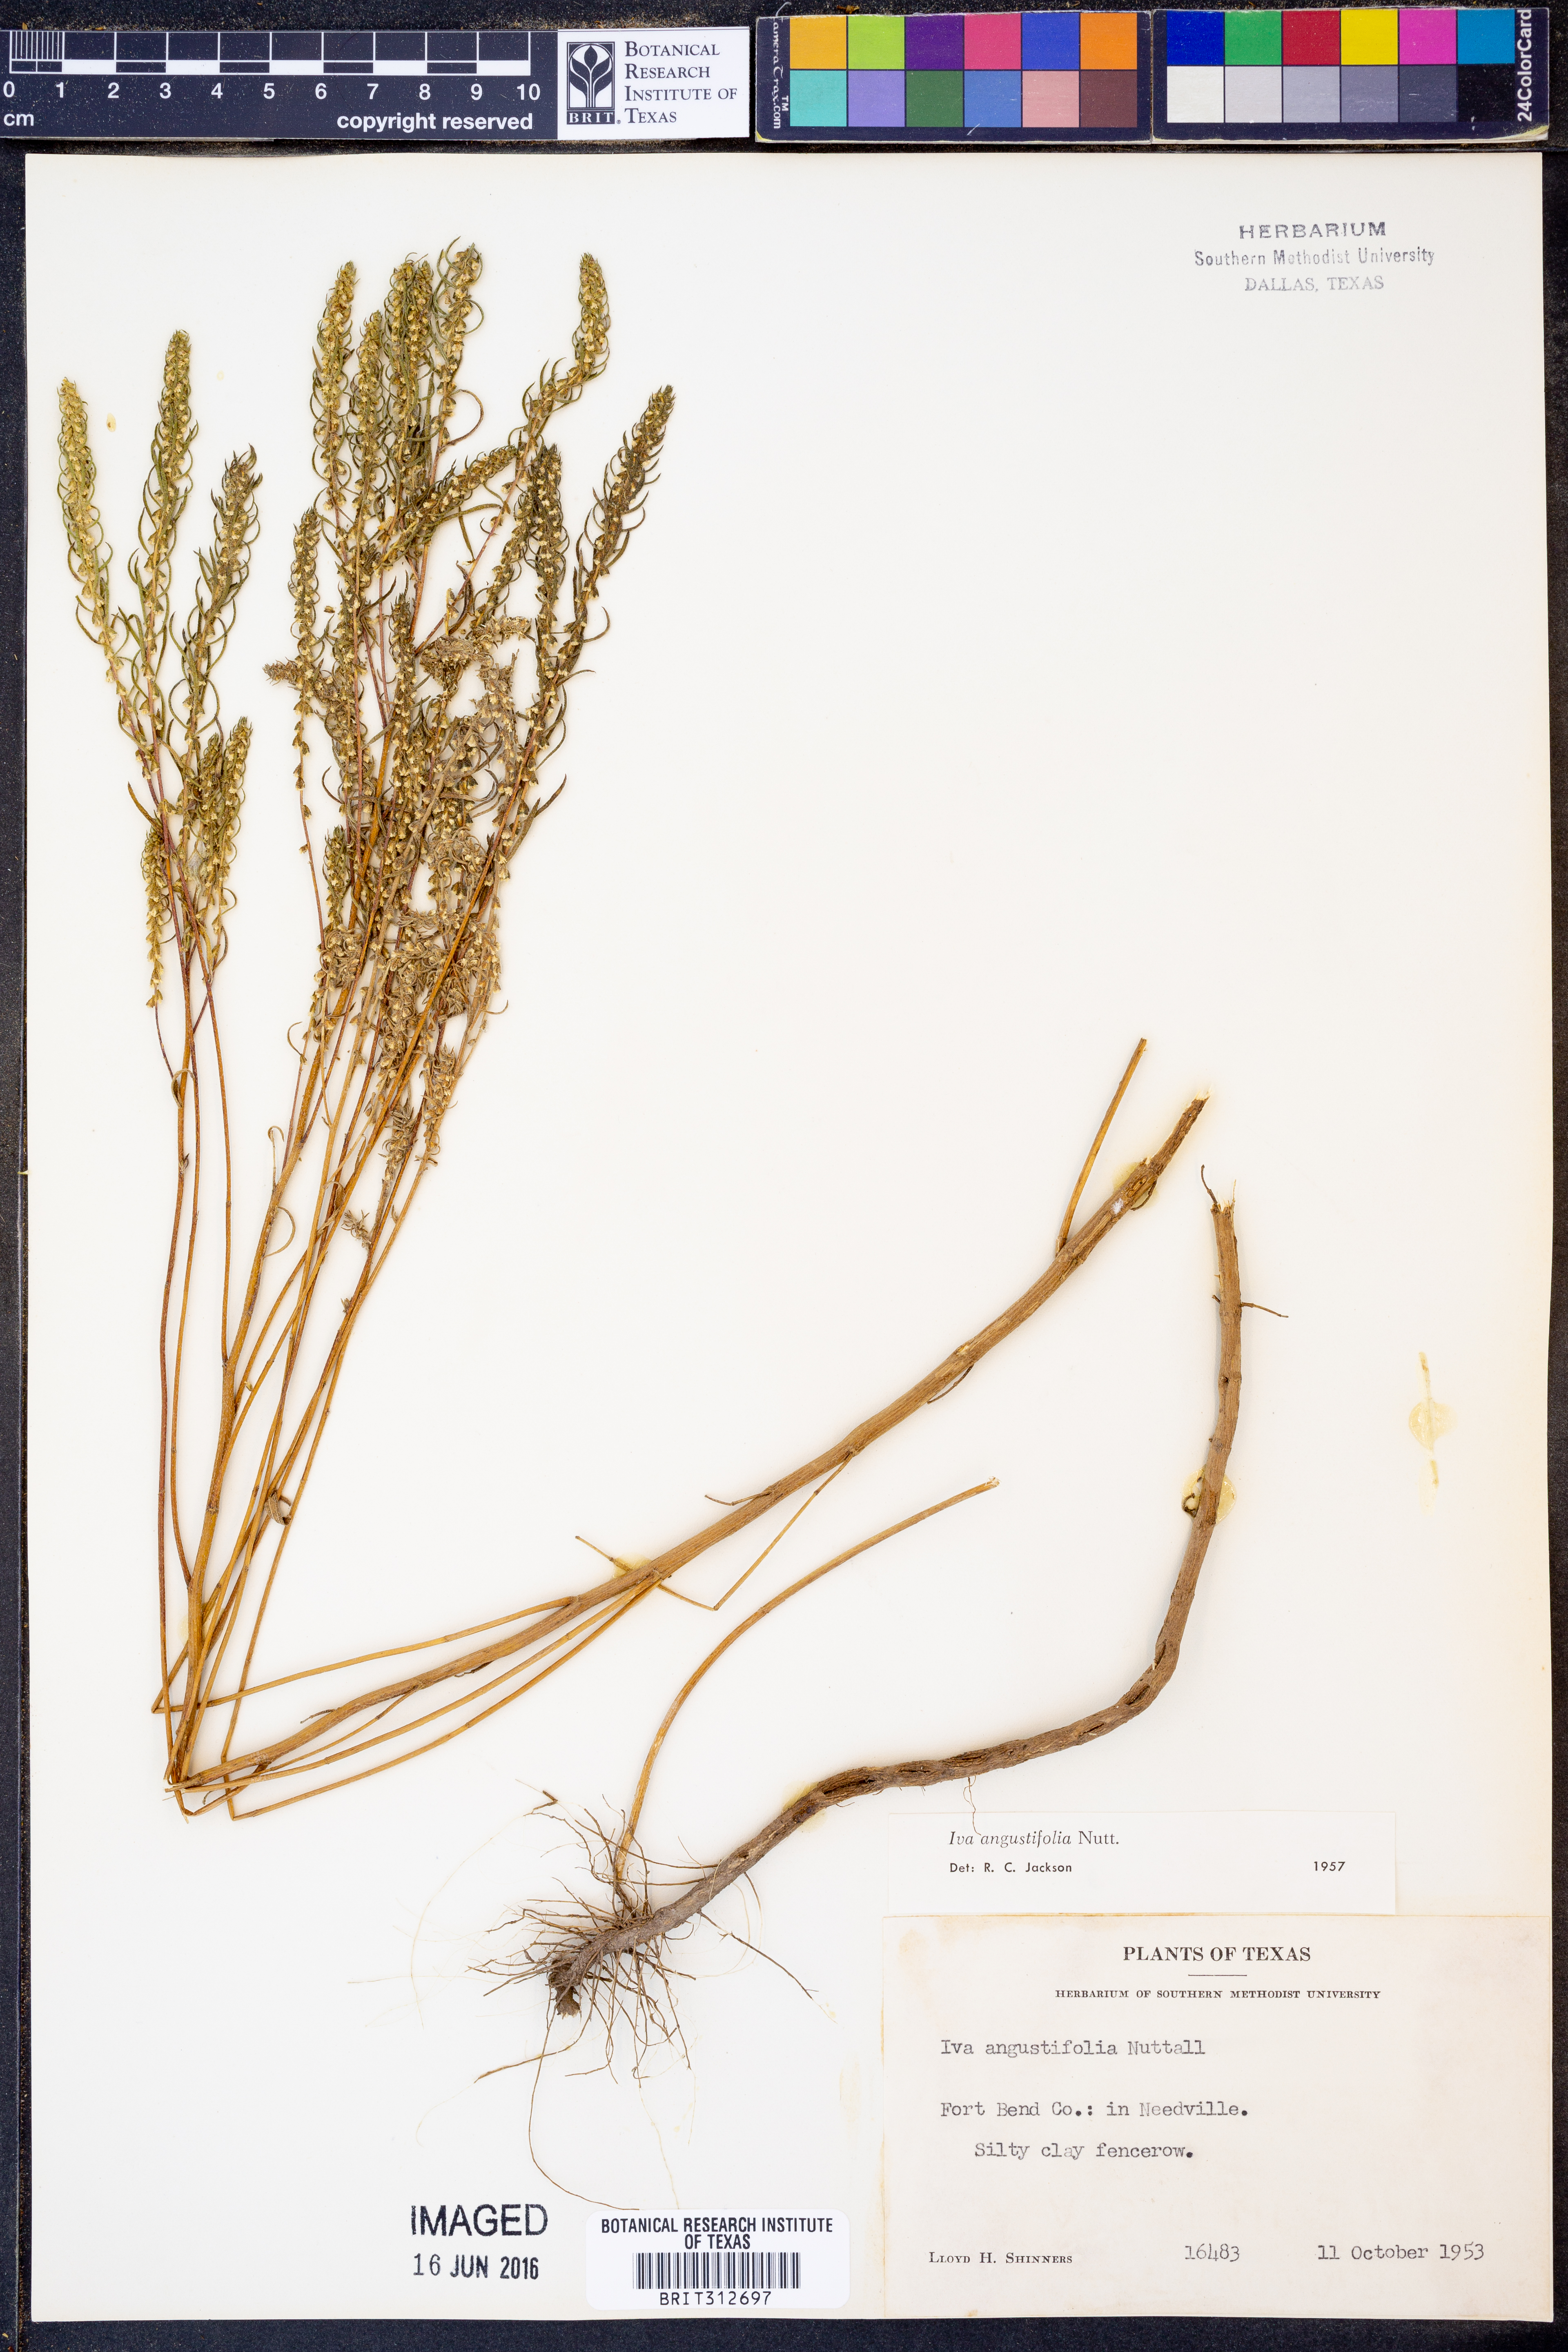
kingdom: Plantae
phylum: Tracheophyta
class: Magnoliopsida
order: Asterales
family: Asteraceae
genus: Iva
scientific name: Iva asperifolia
